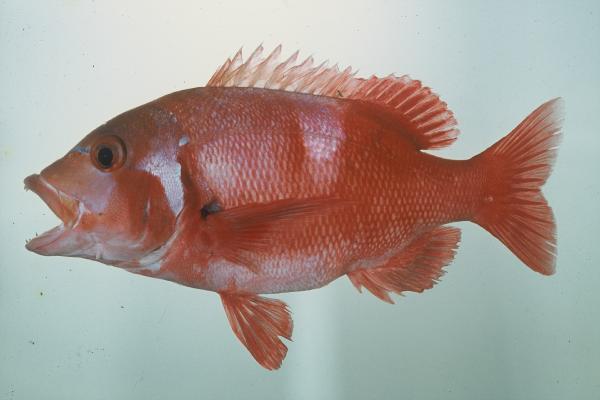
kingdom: Animalia
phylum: Chordata
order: Perciformes
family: Sparidae
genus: Chrysoblephus
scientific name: Chrysoblephus laticeps
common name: Roman seabream
